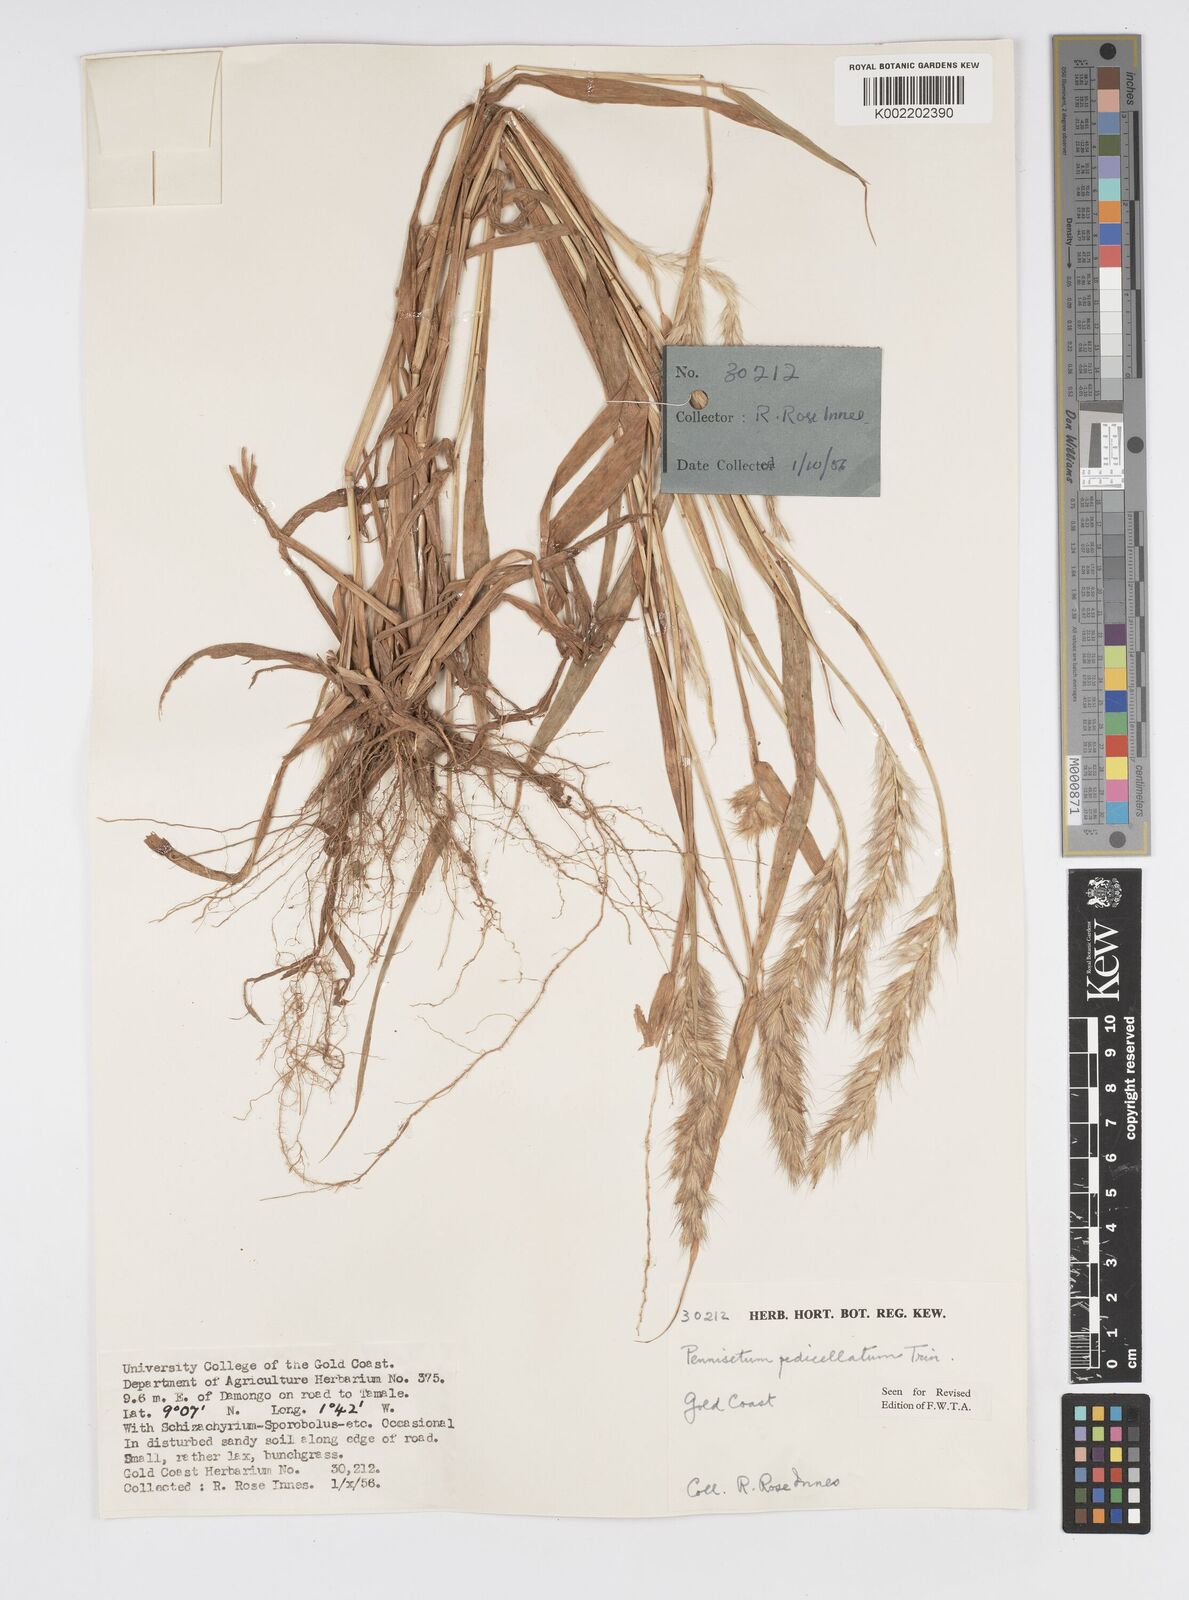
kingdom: Plantae
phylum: Tracheophyta
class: Liliopsida
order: Poales
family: Poaceae
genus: Cenchrus
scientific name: Cenchrus pedicellatus
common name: Hairy fountain grass
